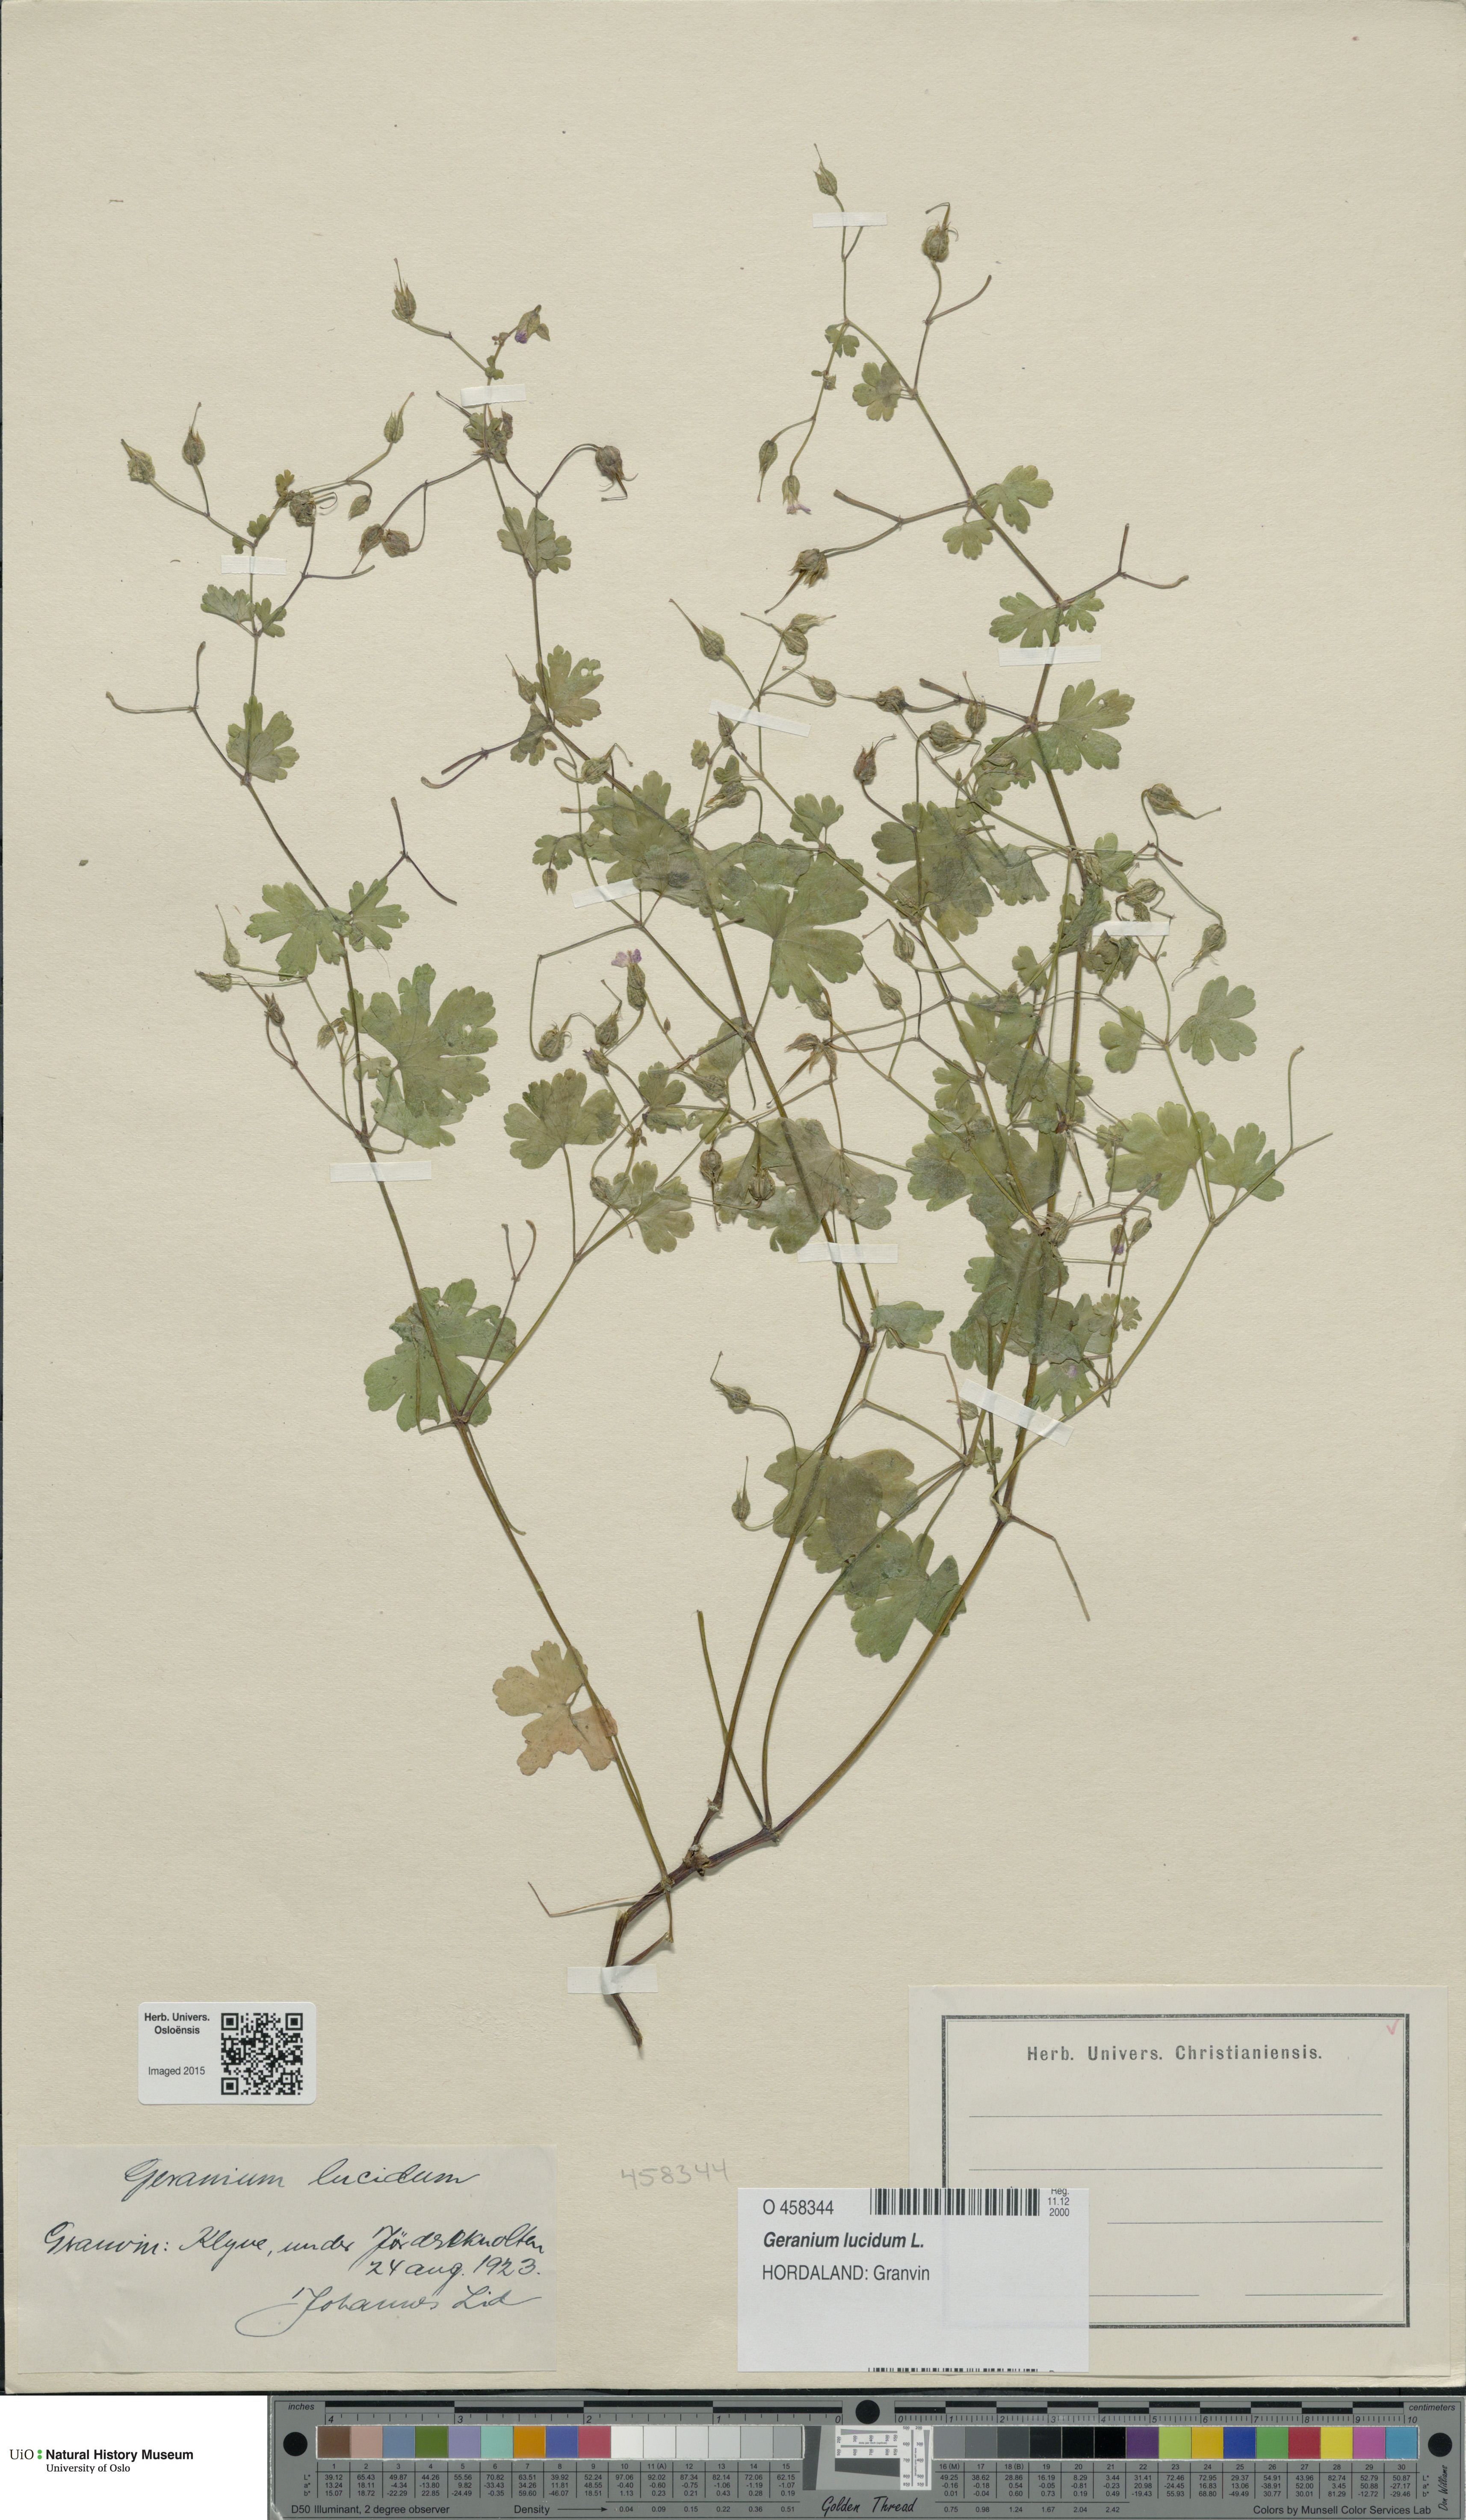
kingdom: Plantae
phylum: Tracheophyta
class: Magnoliopsida
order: Geraniales
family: Geraniaceae
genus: Geranium
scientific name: Geranium lucidum
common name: Shining crane's-bill
